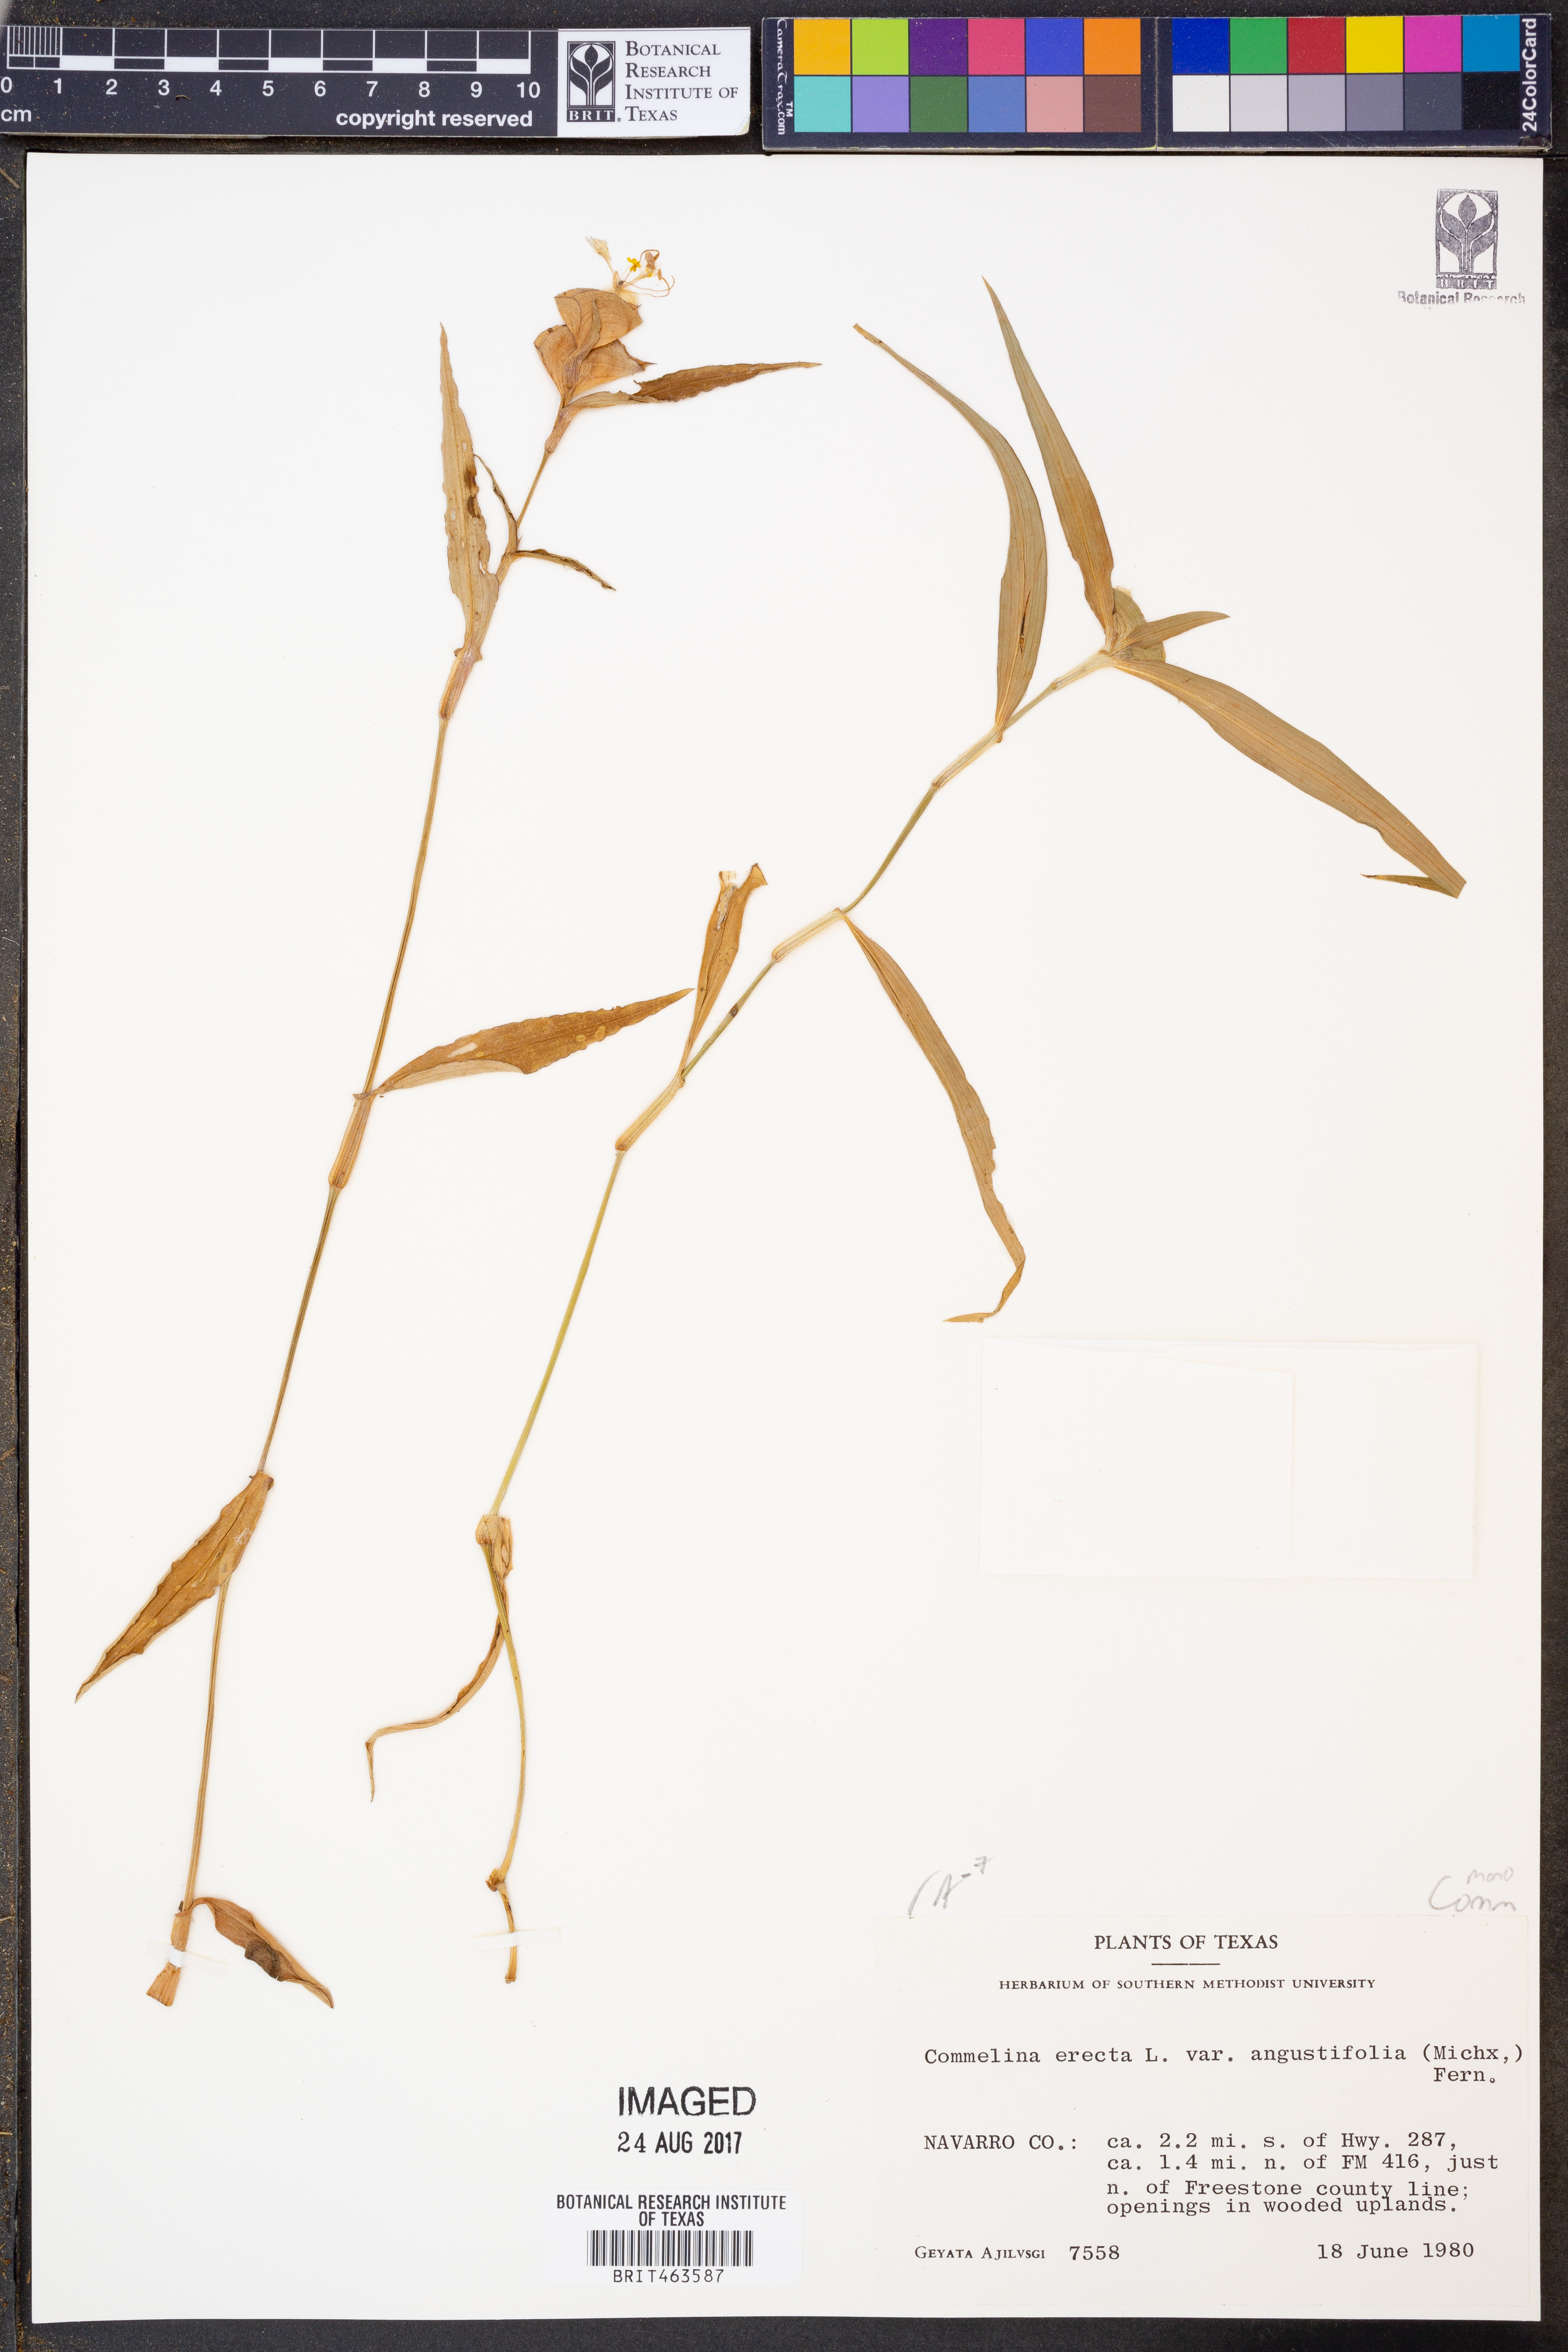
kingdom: Plantae
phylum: Tracheophyta
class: Liliopsida
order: Commelinales
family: Commelinaceae
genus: Commelina
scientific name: Commelina erecta
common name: Blousel blommetjie
